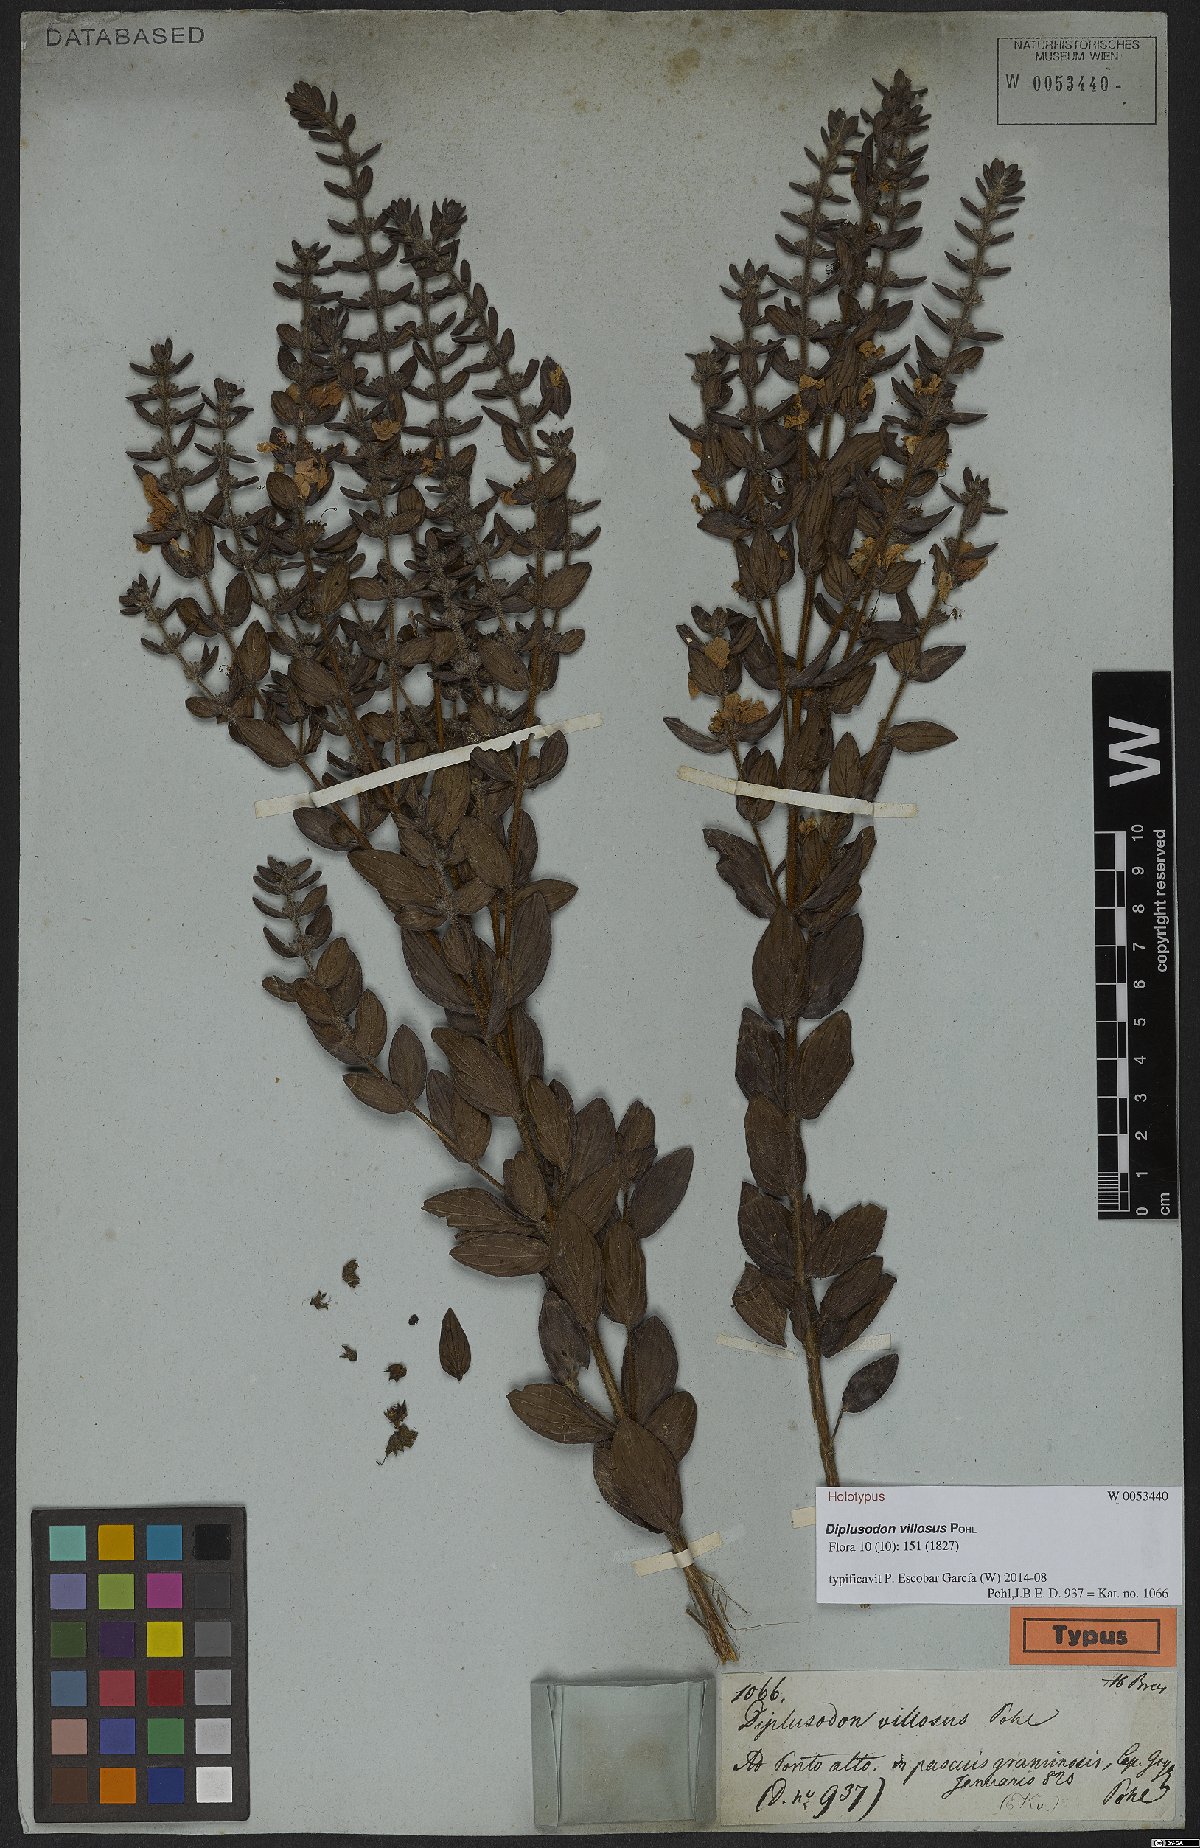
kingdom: Plantae
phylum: Tracheophyta
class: Magnoliopsida
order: Myrtales
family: Lythraceae
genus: Diplusodon
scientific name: Diplusodon villosus
